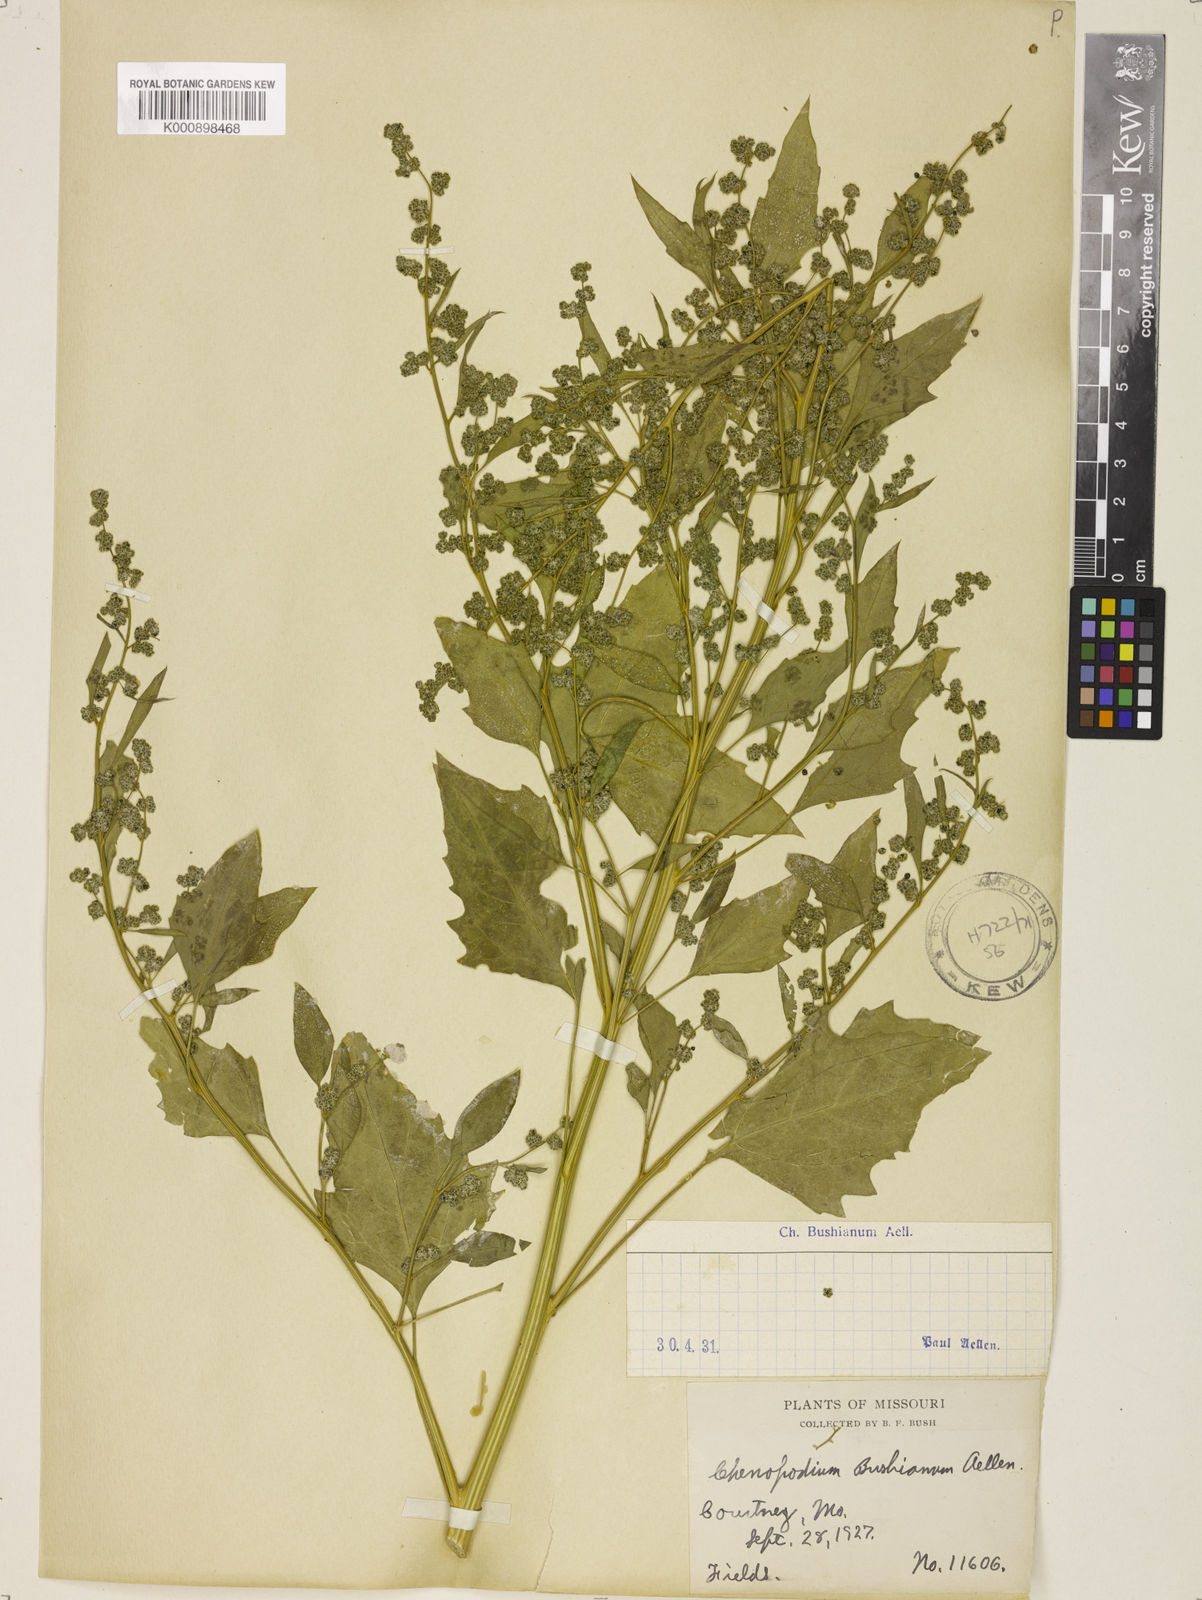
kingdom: Plantae
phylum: Tracheophyta
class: Magnoliopsida
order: Caryophyllales
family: Amaranthaceae
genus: Chenopodium
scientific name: Chenopodium berlandieri
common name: Pit-seed goosefoot
